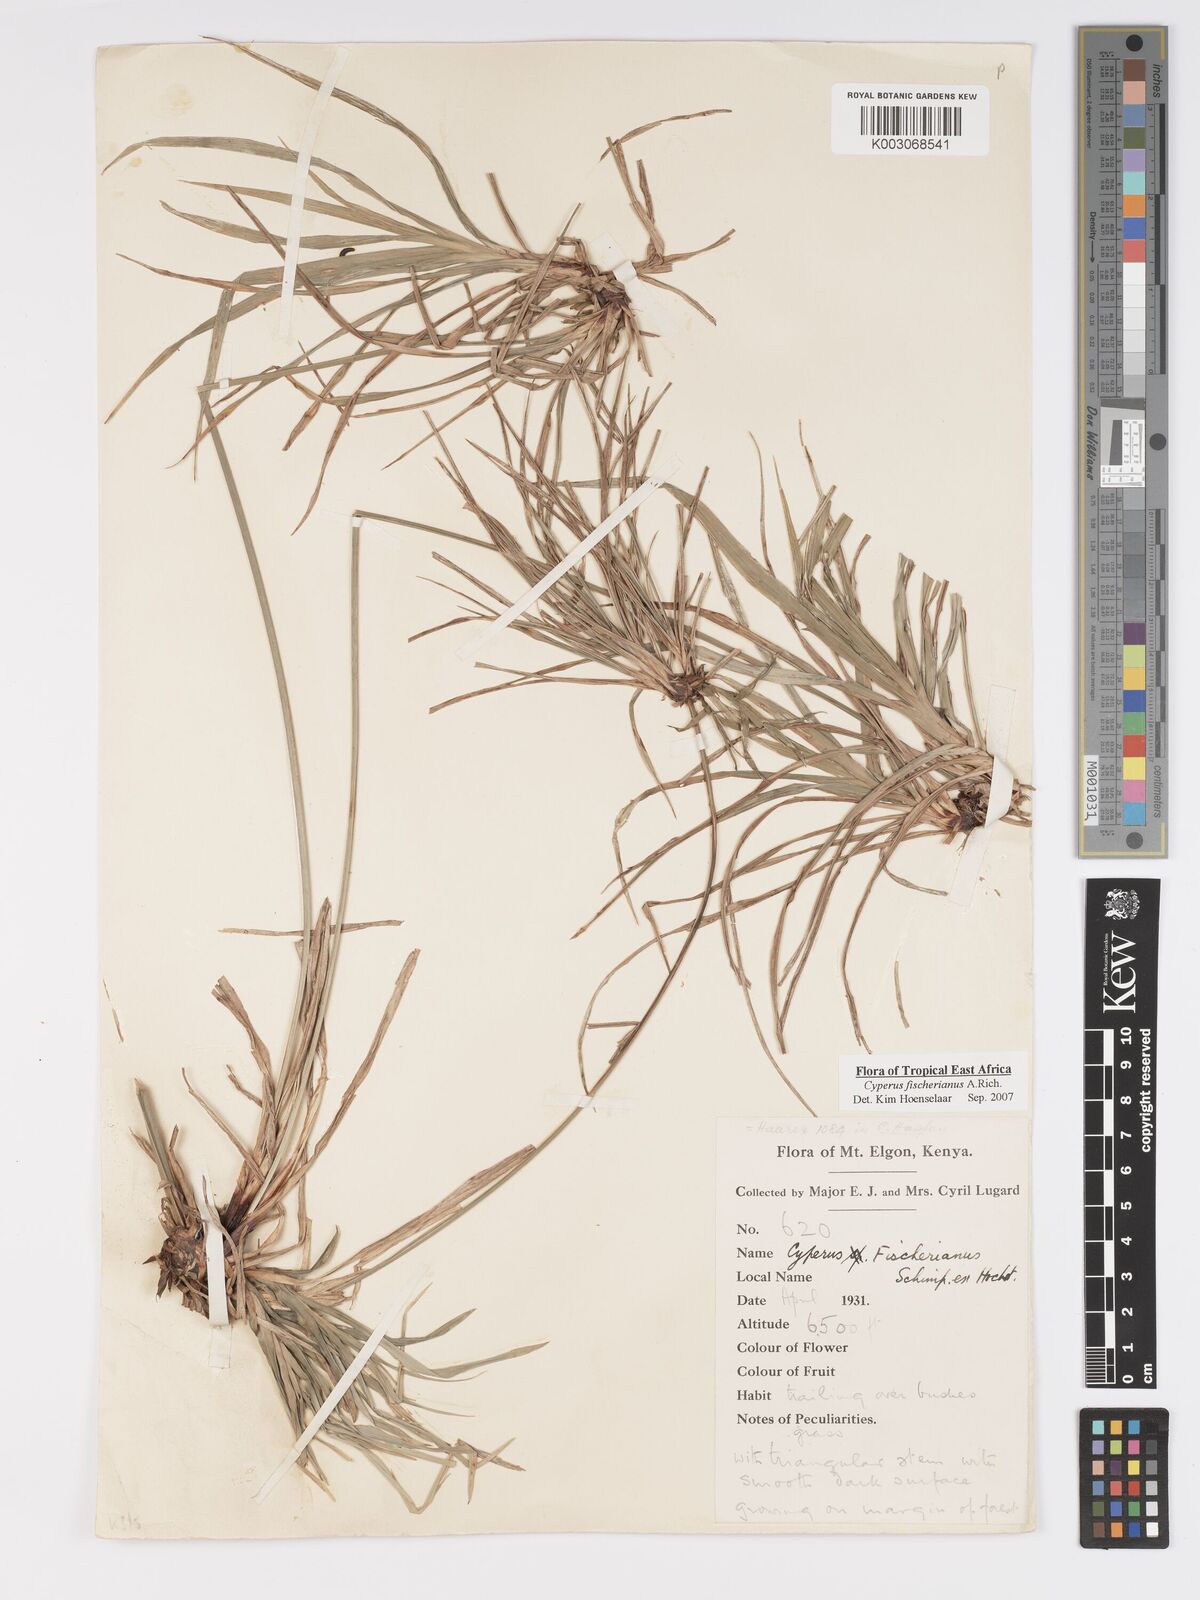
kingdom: Plantae
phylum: Tracheophyta
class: Liliopsida
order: Poales
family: Cyperaceae
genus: Cyperus
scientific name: Cyperus fischerianus
